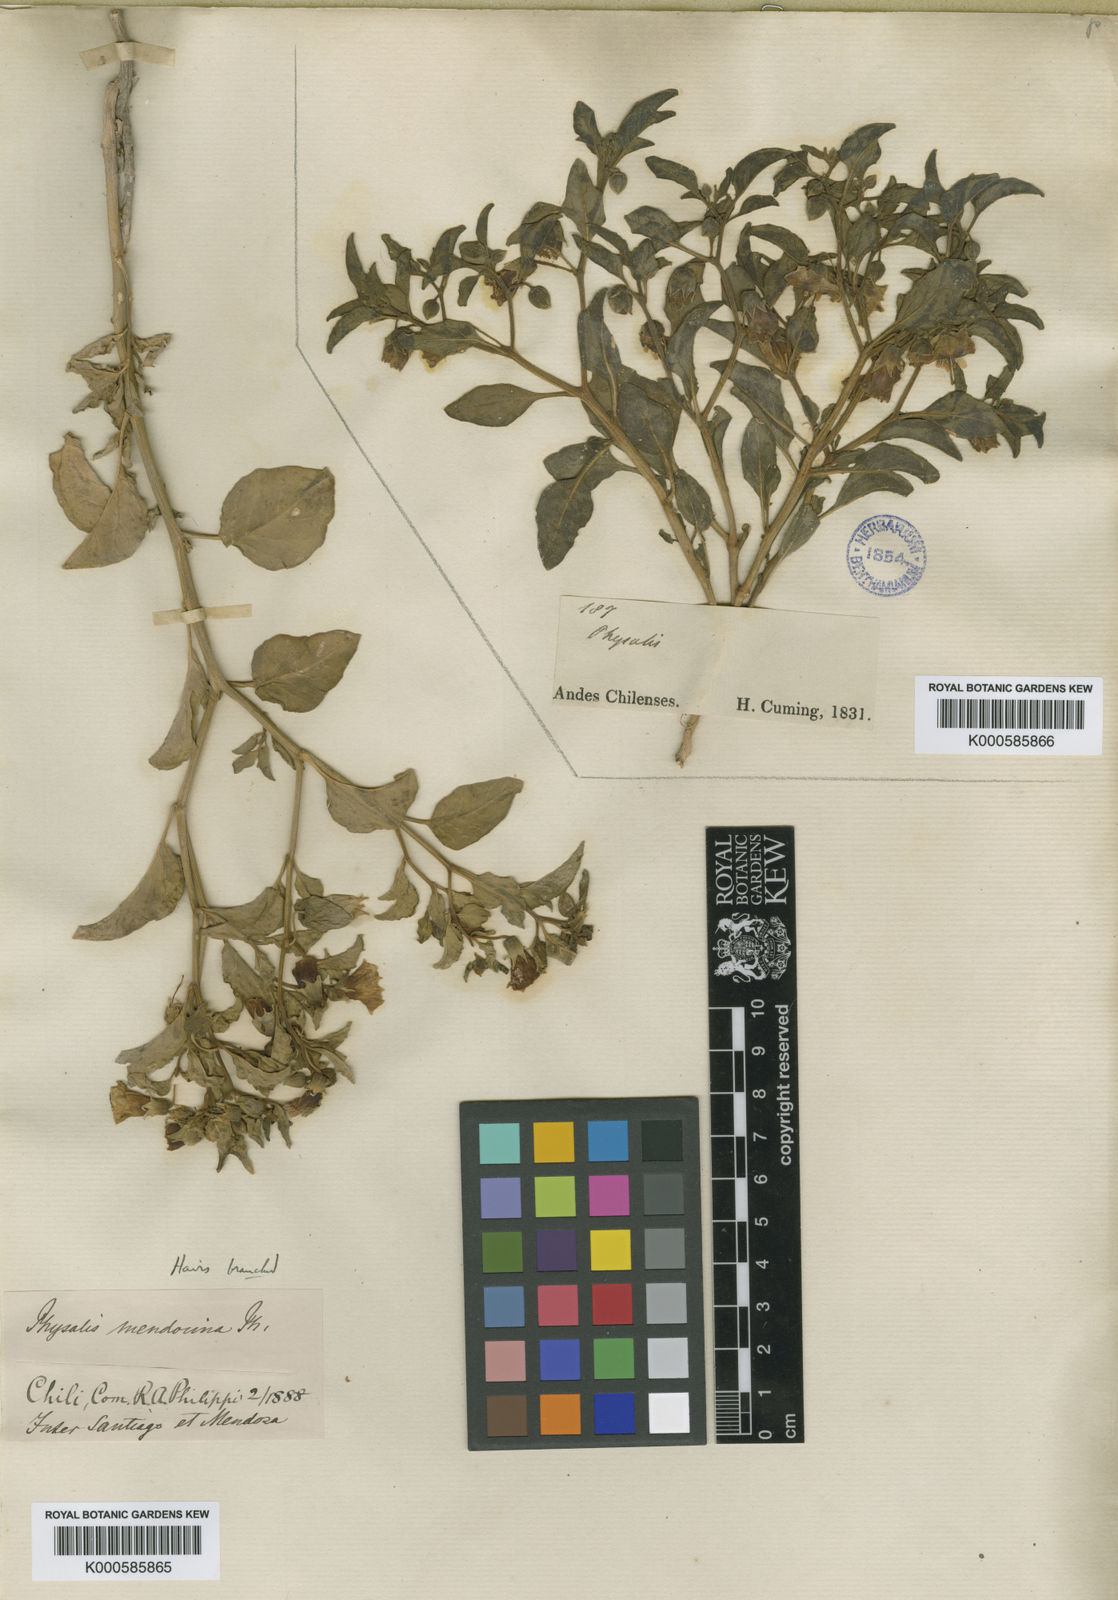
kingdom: Plantae
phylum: Tracheophyta
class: Magnoliopsida
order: Solanales
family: Solanaceae
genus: Physalis
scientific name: Physalis viscosa
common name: Stellate ground-cherry
